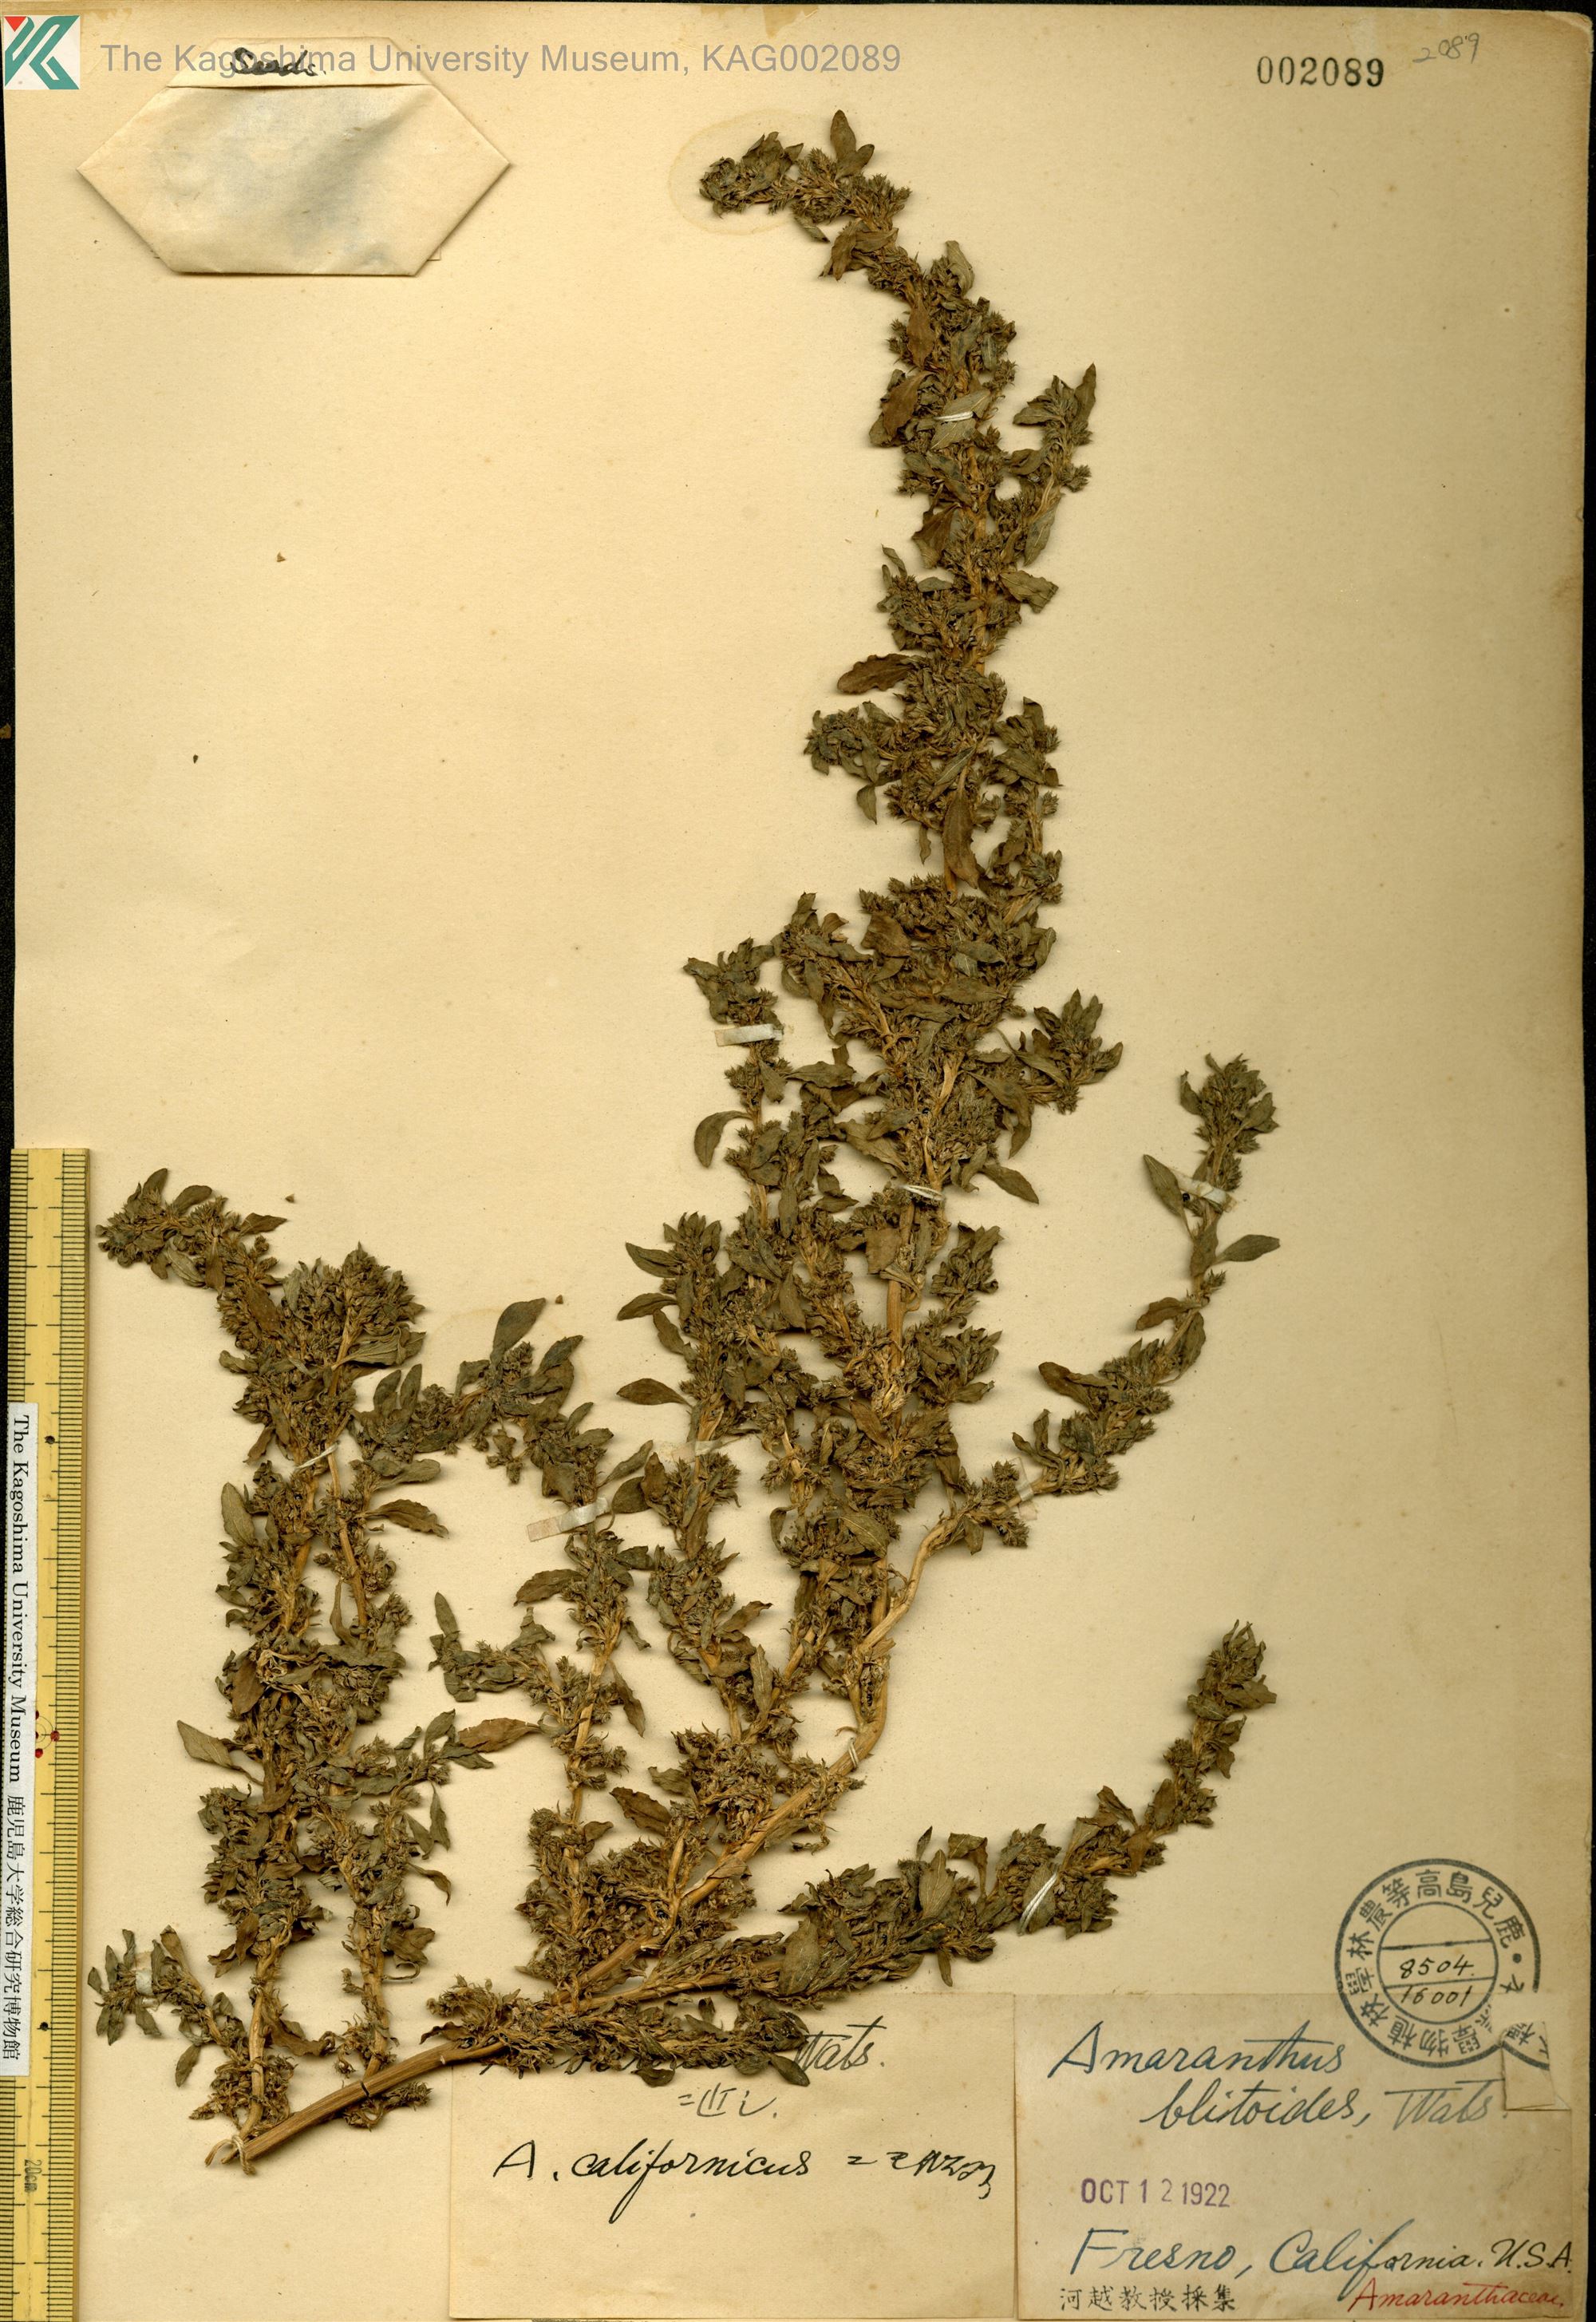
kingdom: Plantae
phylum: Tracheophyta
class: Magnoliopsida
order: Caryophyllales
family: Amaranthaceae
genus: Amaranthus
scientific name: Amaranthus blitoides
